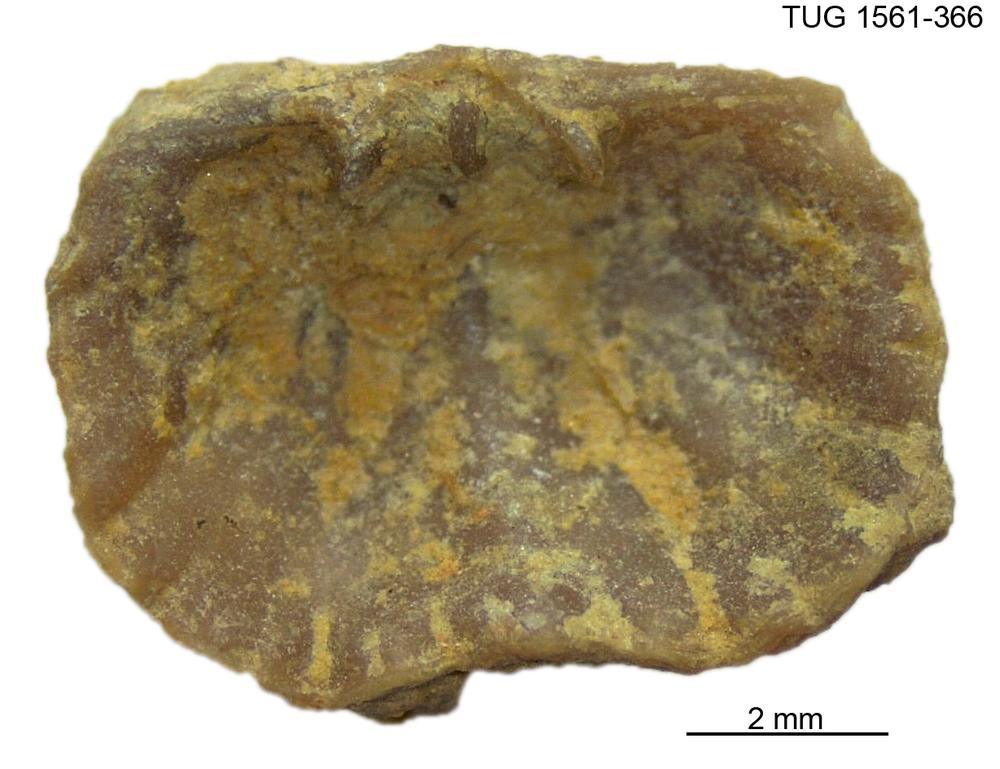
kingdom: Animalia
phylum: Brachiopoda
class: Rhynchonellata
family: Hesperorthidae
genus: Ptychopleurella
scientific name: Ptychopleurella Orthis bouchardi
